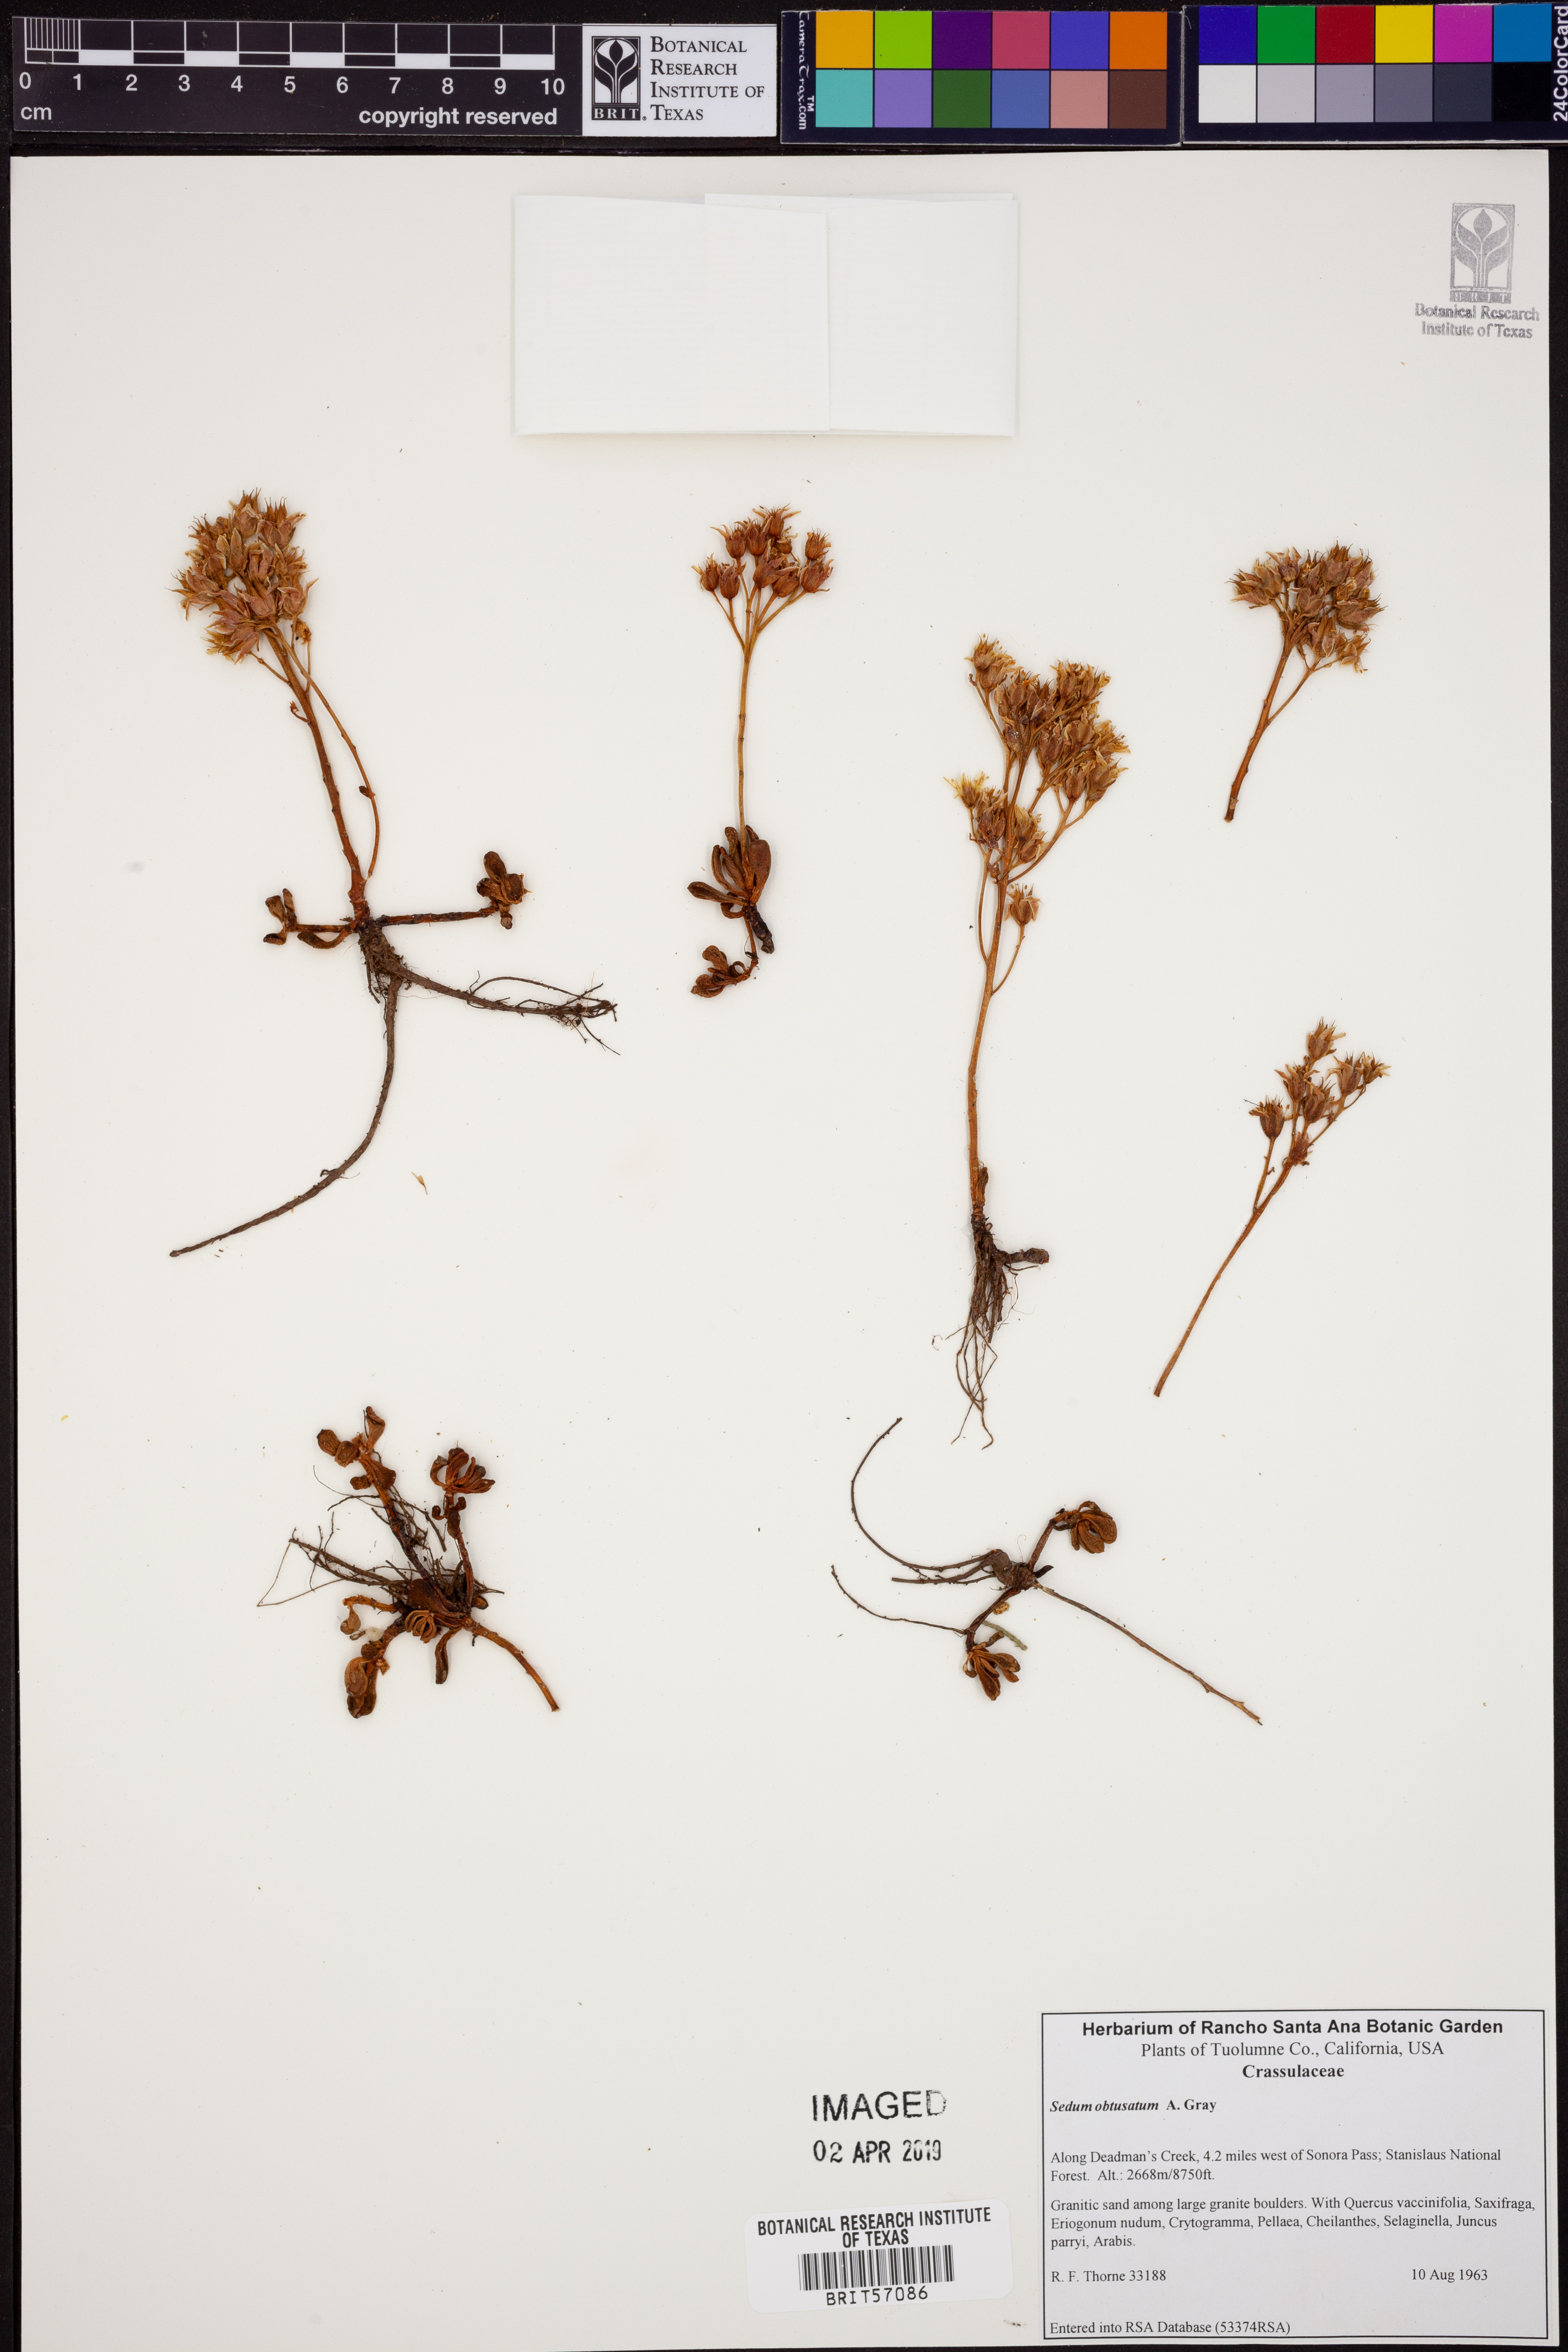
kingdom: Plantae
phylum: Tracheophyta
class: Magnoliopsida
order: Saxifragales
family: Crassulaceae
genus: Sedum
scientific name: Sedum obtusatum
